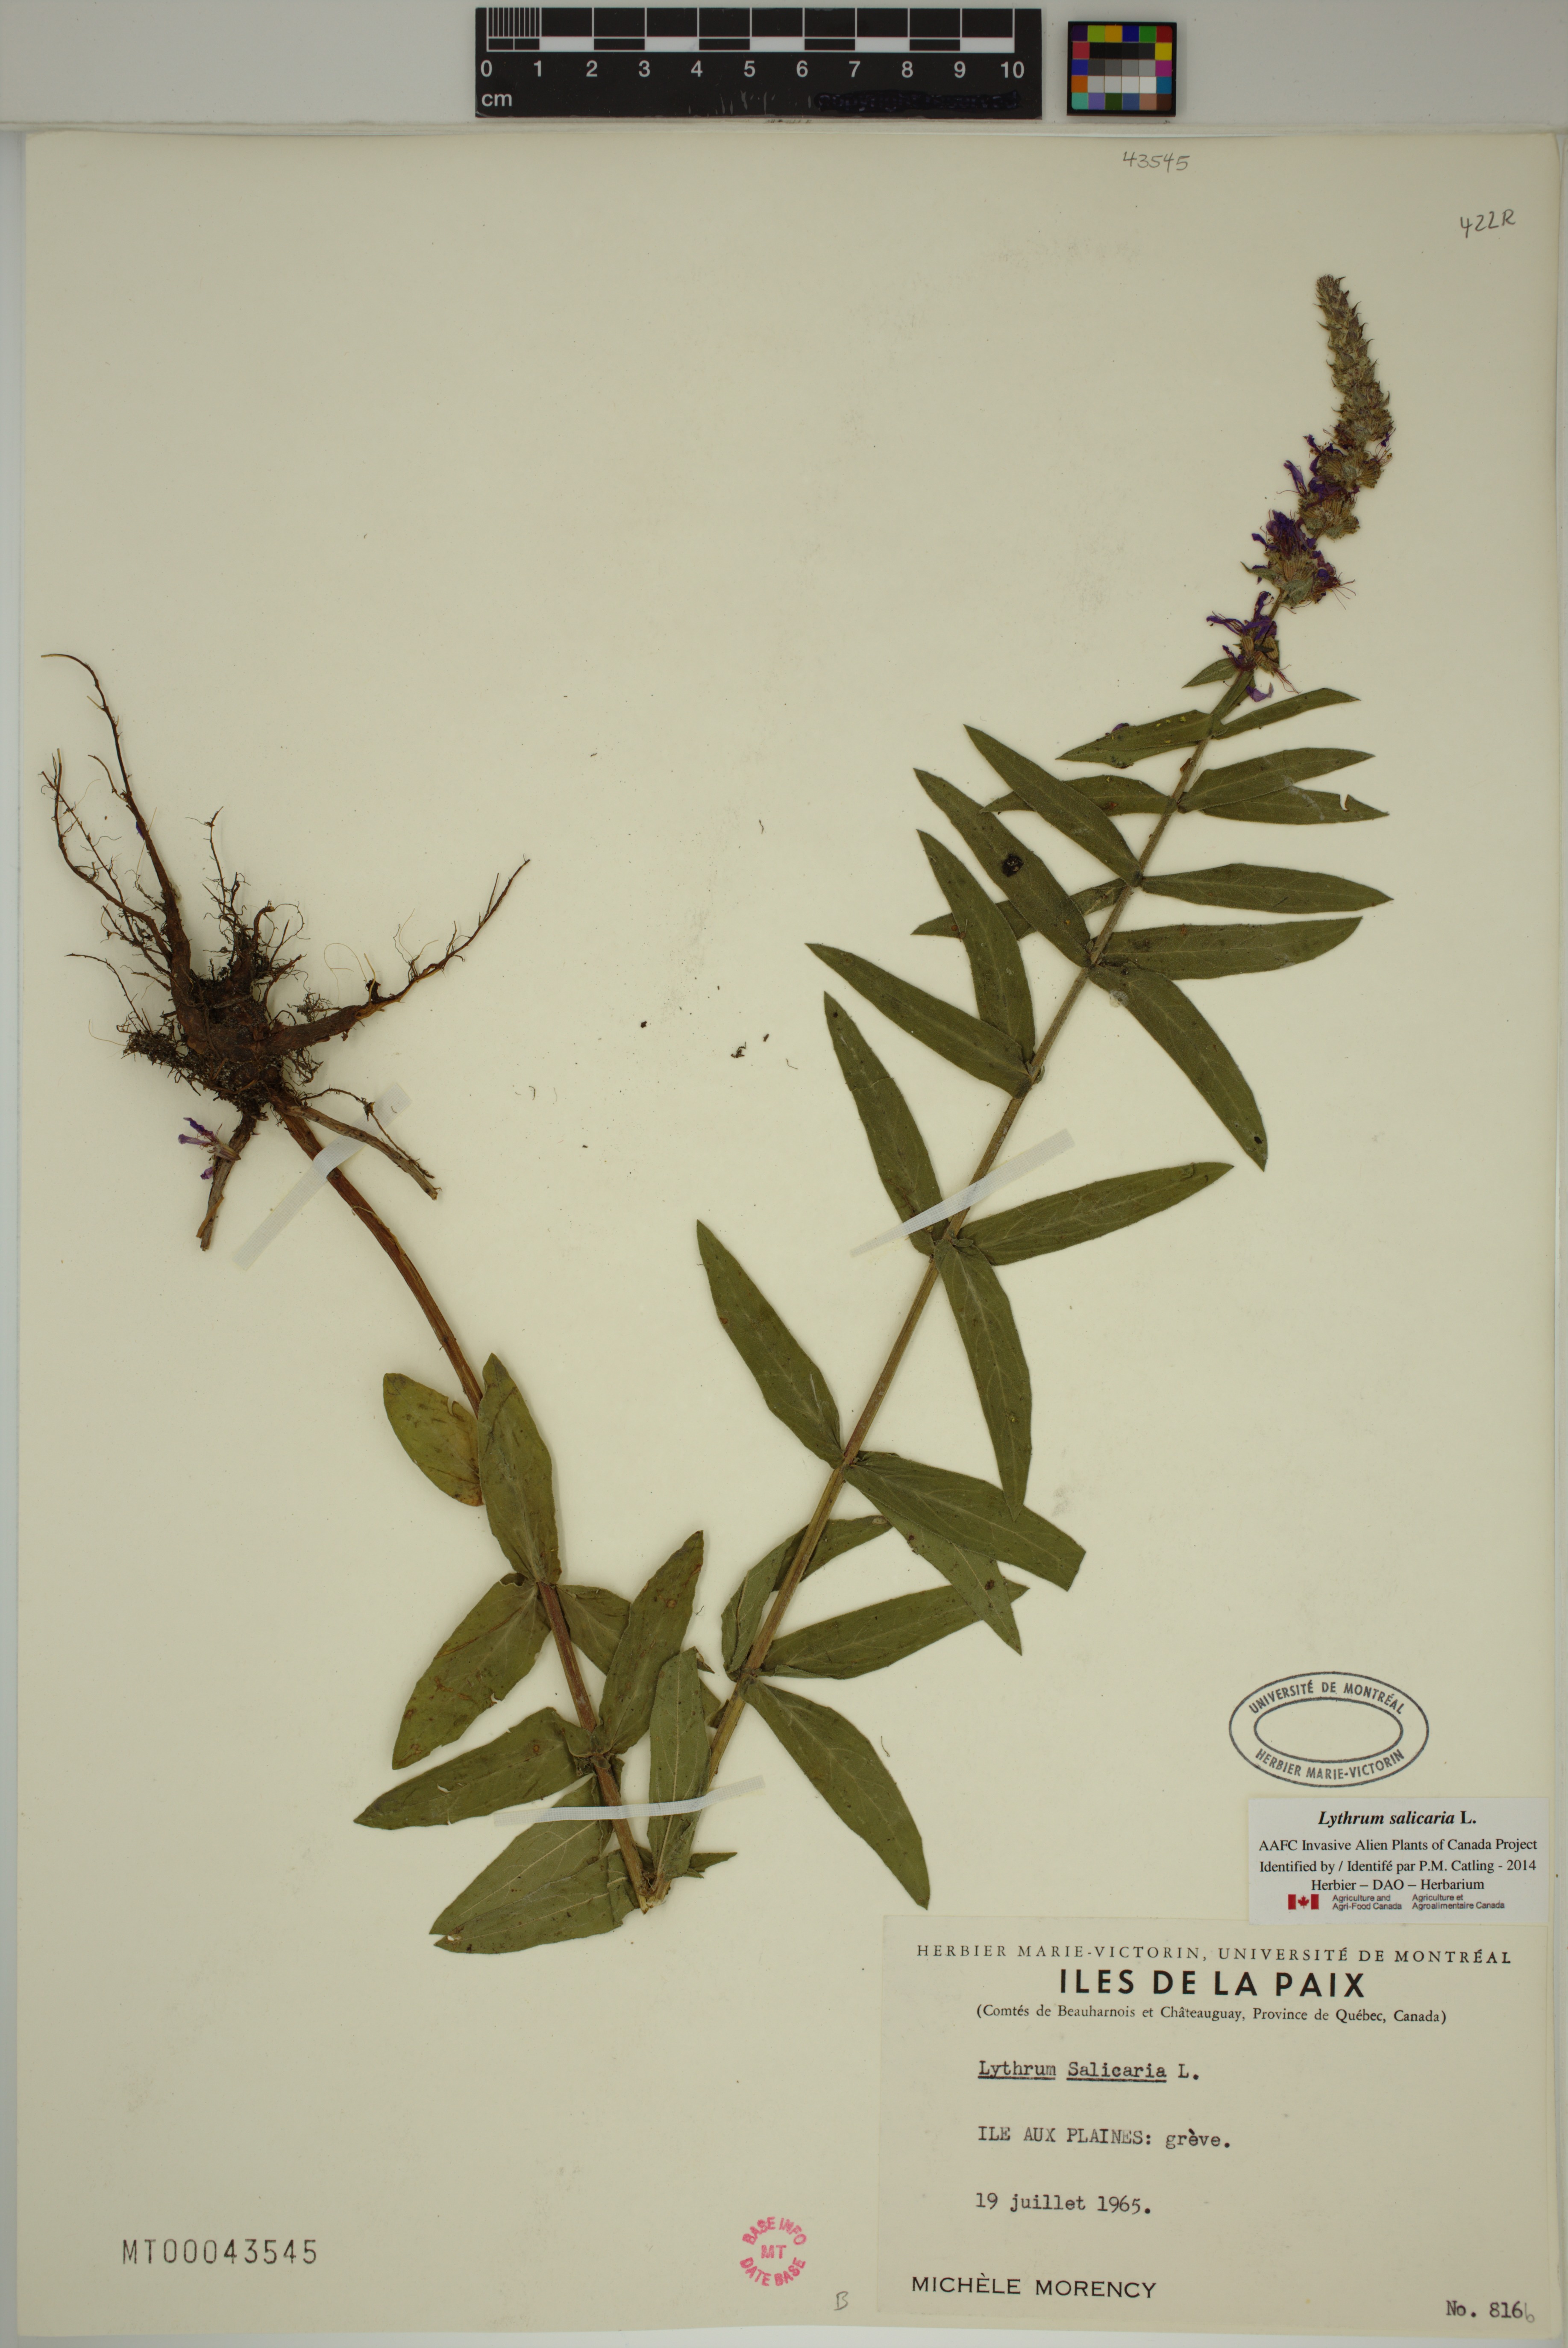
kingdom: Plantae
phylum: Tracheophyta
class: Magnoliopsida
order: Myrtales
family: Lythraceae
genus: Lythrum
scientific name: Lythrum salicaria
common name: Purple loosestrife
